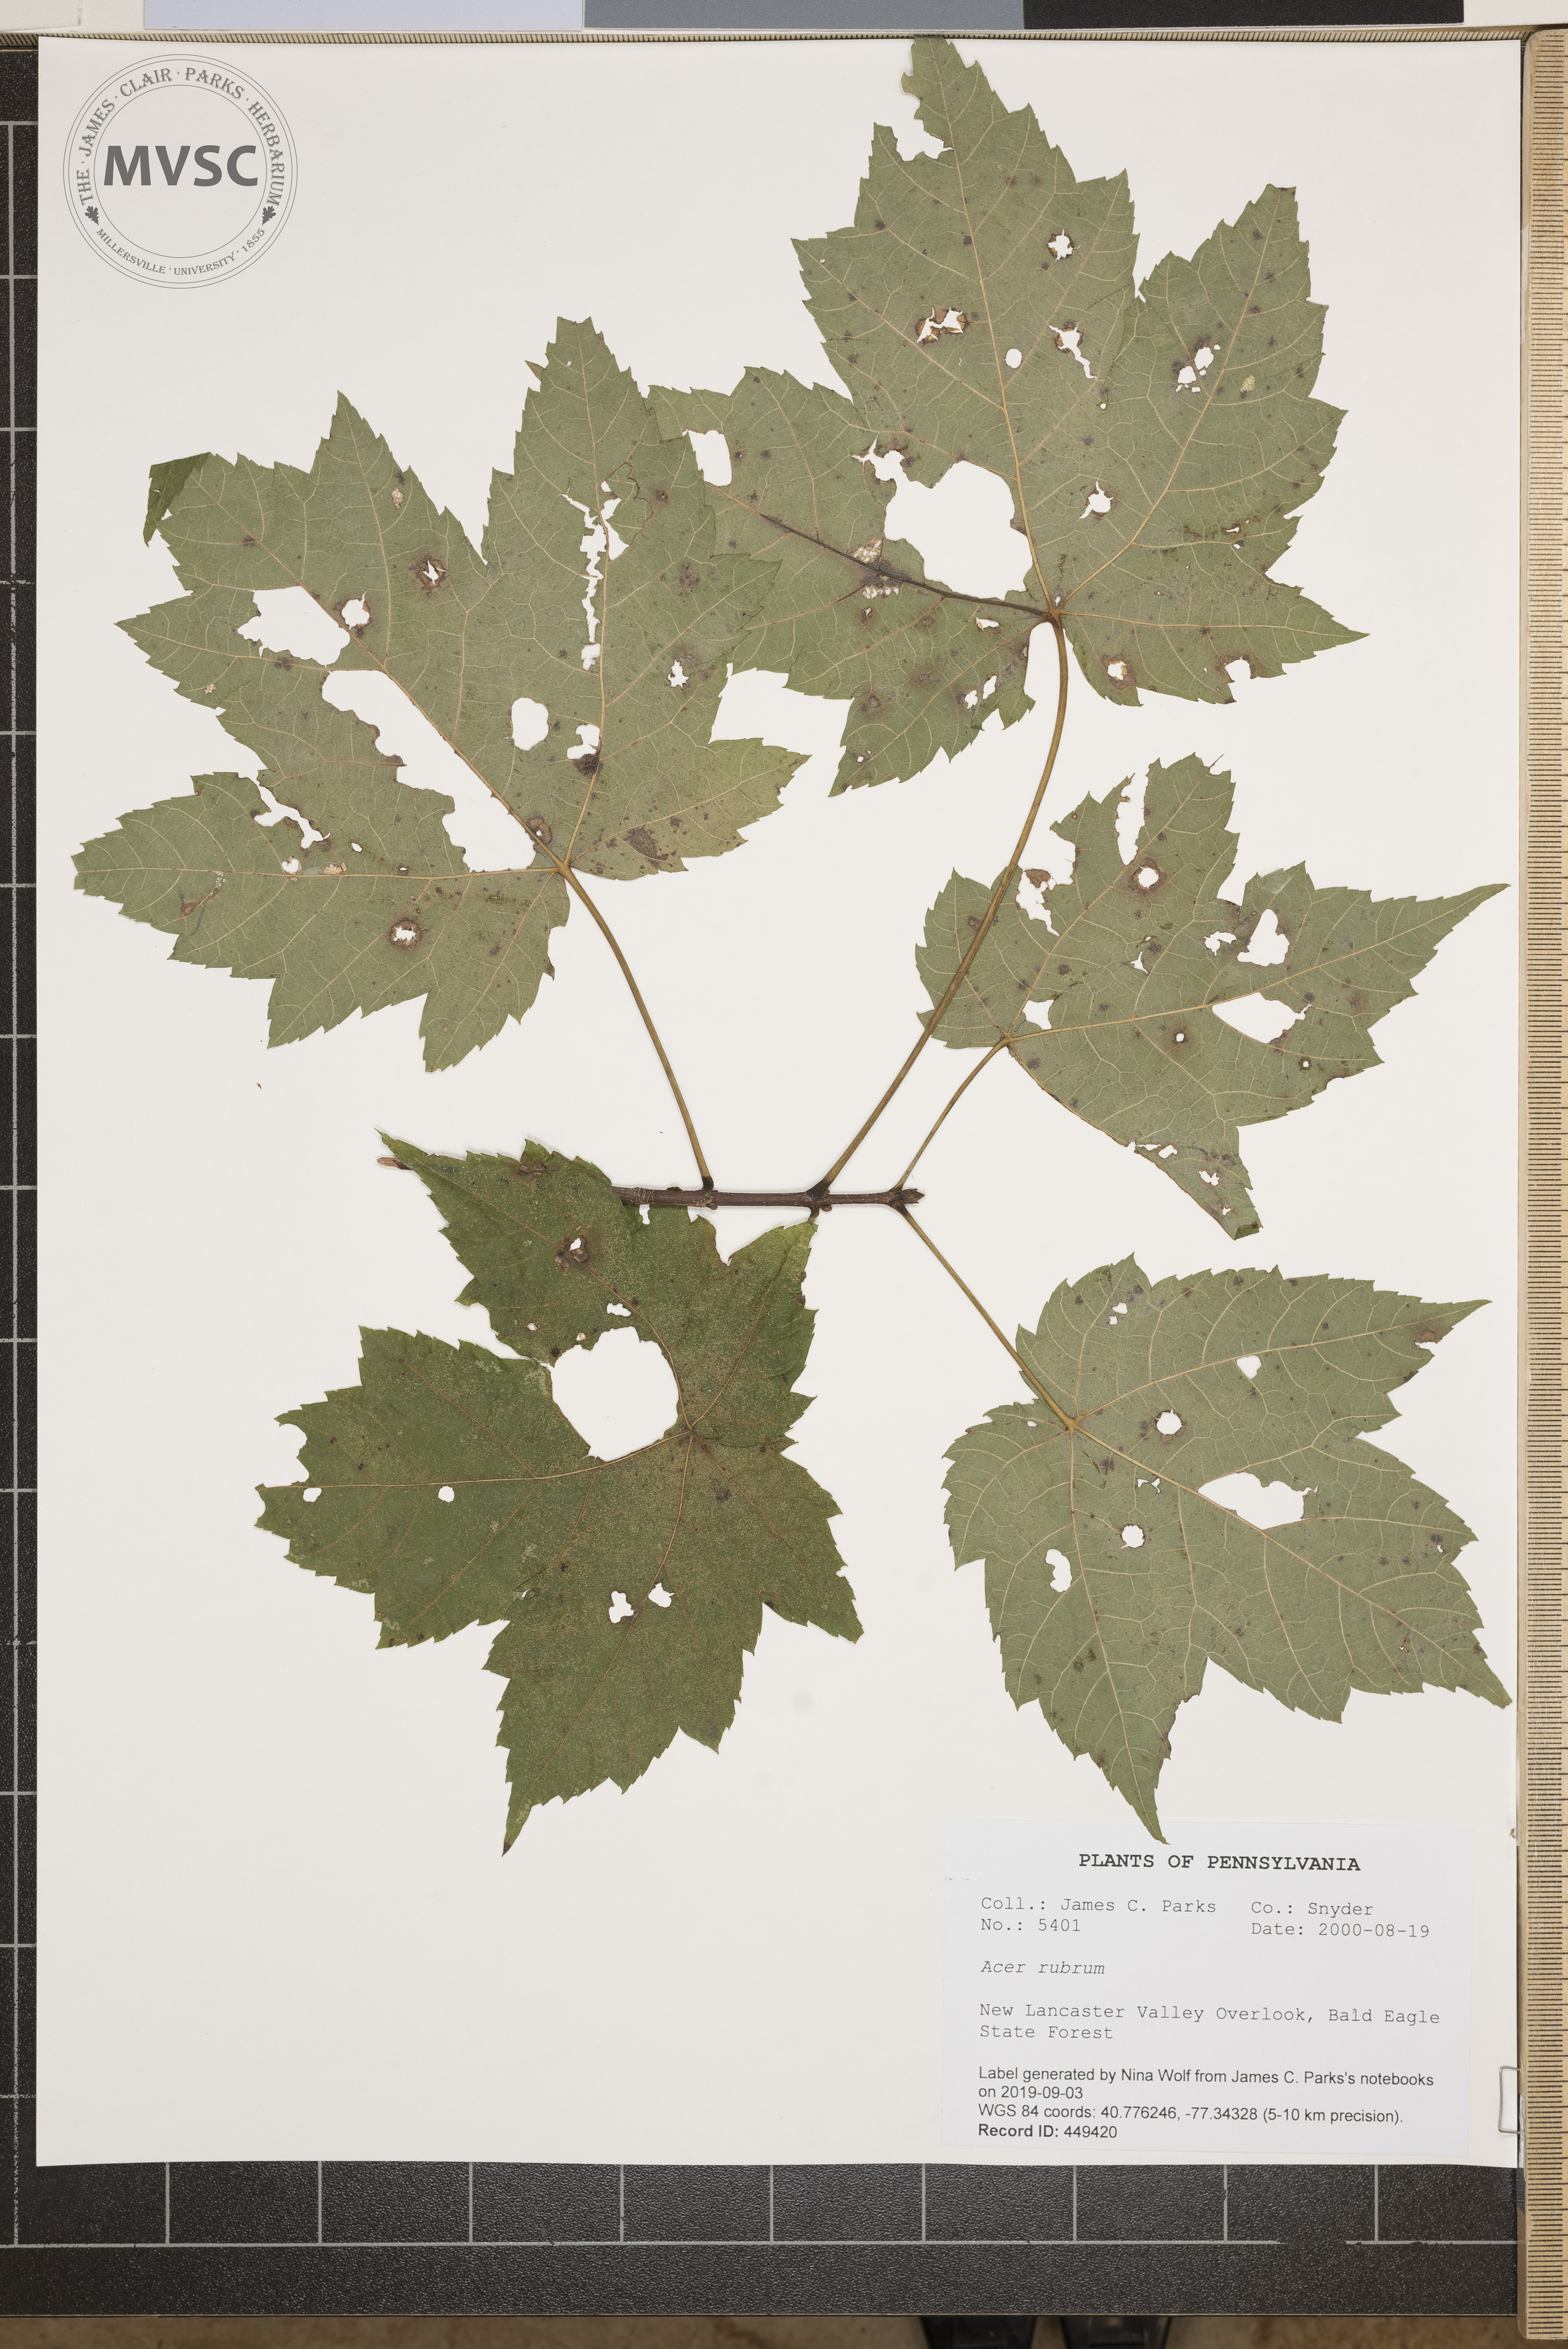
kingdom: Plantae
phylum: Tracheophyta
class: Magnoliopsida
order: Sapindales
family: Sapindaceae
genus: Acer
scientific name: Acer rubrum
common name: Red maple
